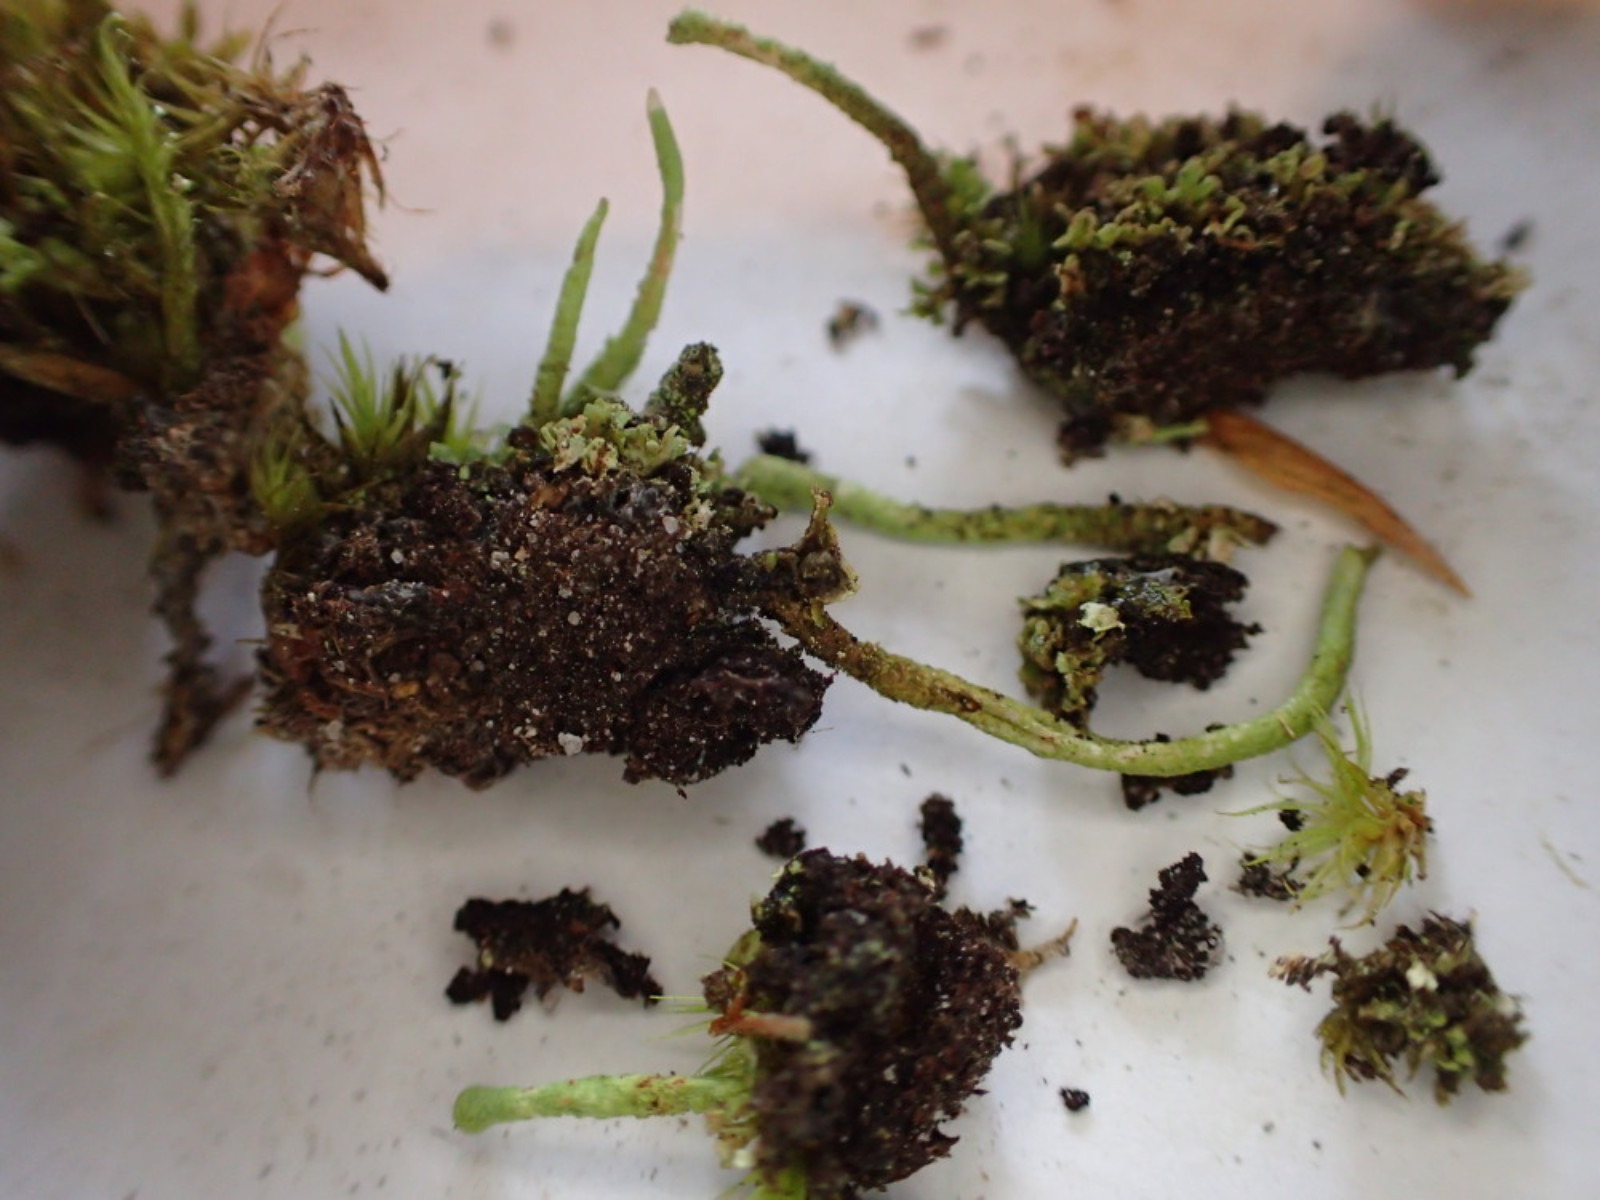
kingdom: Fungi
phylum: Ascomycota
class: Lecanoromycetes
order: Lecanorales
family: Cladoniaceae
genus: Cladonia
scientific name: Cladonia ochrochlora
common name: stød-bægerlav
